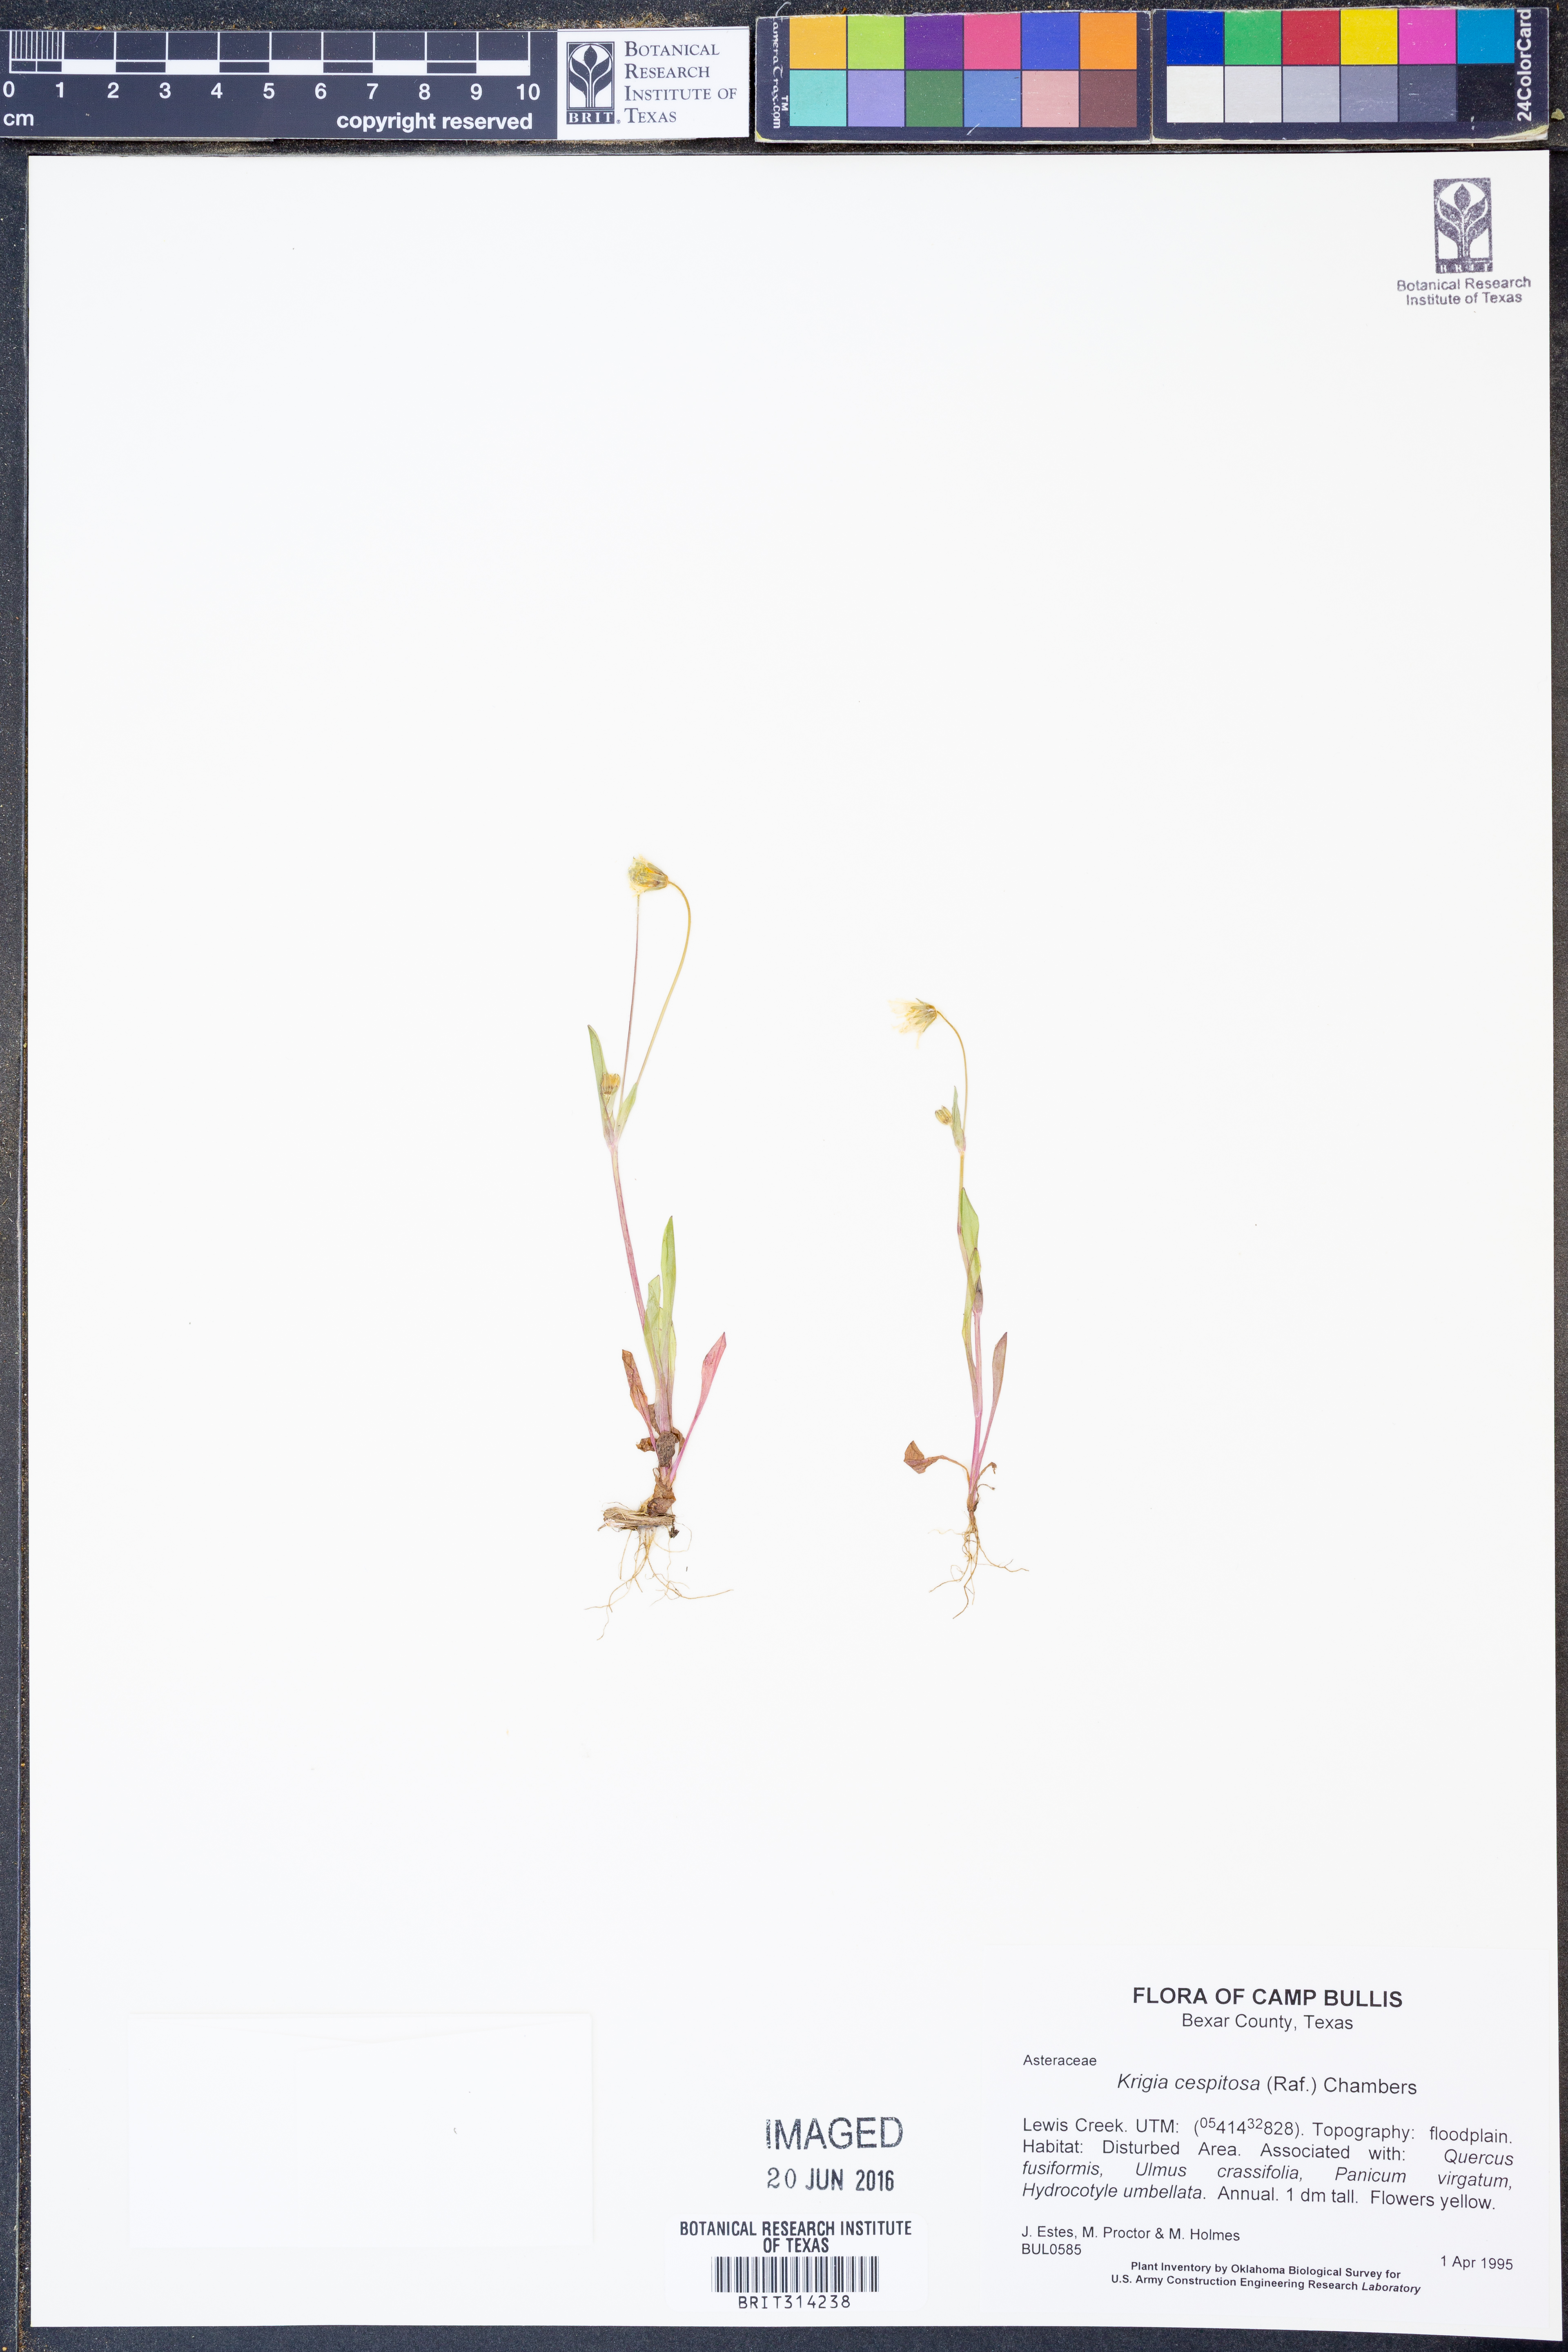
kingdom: Plantae
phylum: Tracheophyta
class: Magnoliopsida
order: Asterales
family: Asteraceae
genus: Krigia
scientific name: Krigia cespitosa
